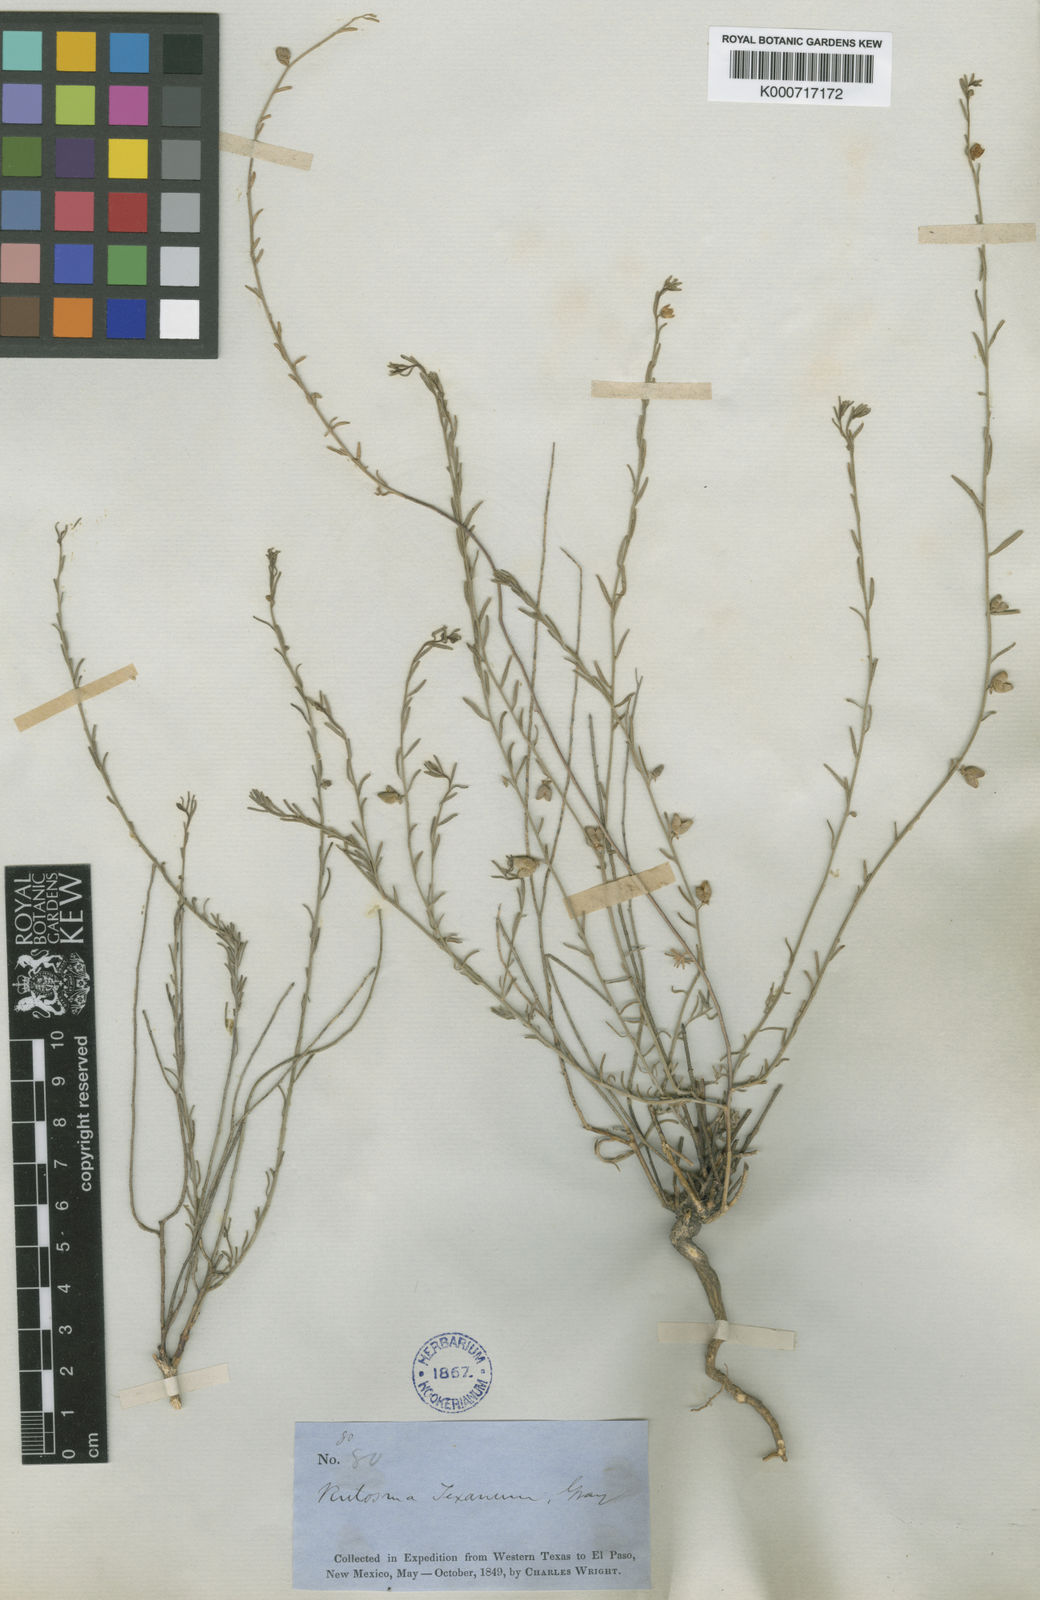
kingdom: Plantae
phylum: Tracheophyta
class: Magnoliopsida
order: Sapindales
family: Rutaceae
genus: Thamnosma
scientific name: Thamnosma texana
